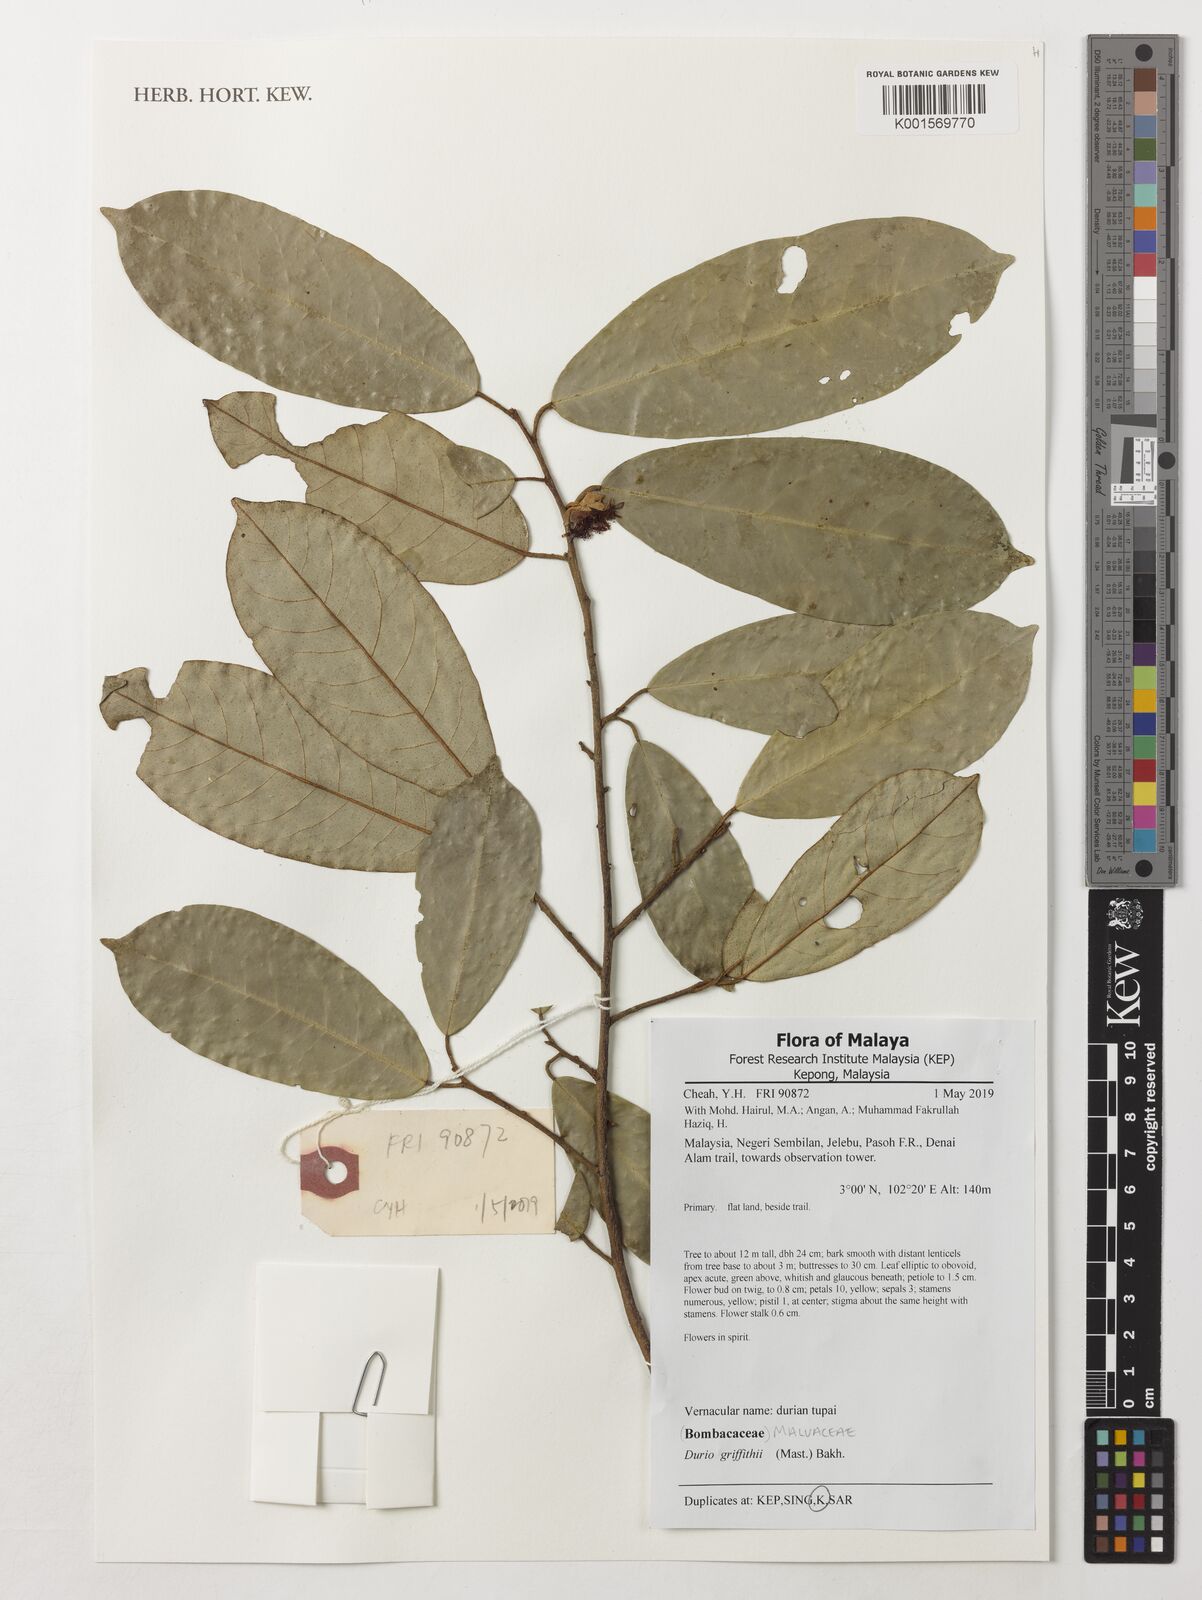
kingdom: Plantae
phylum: Tracheophyta
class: Magnoliopsida
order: Malvales
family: Malvaceae
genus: Boschia
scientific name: Boschia griffithii
